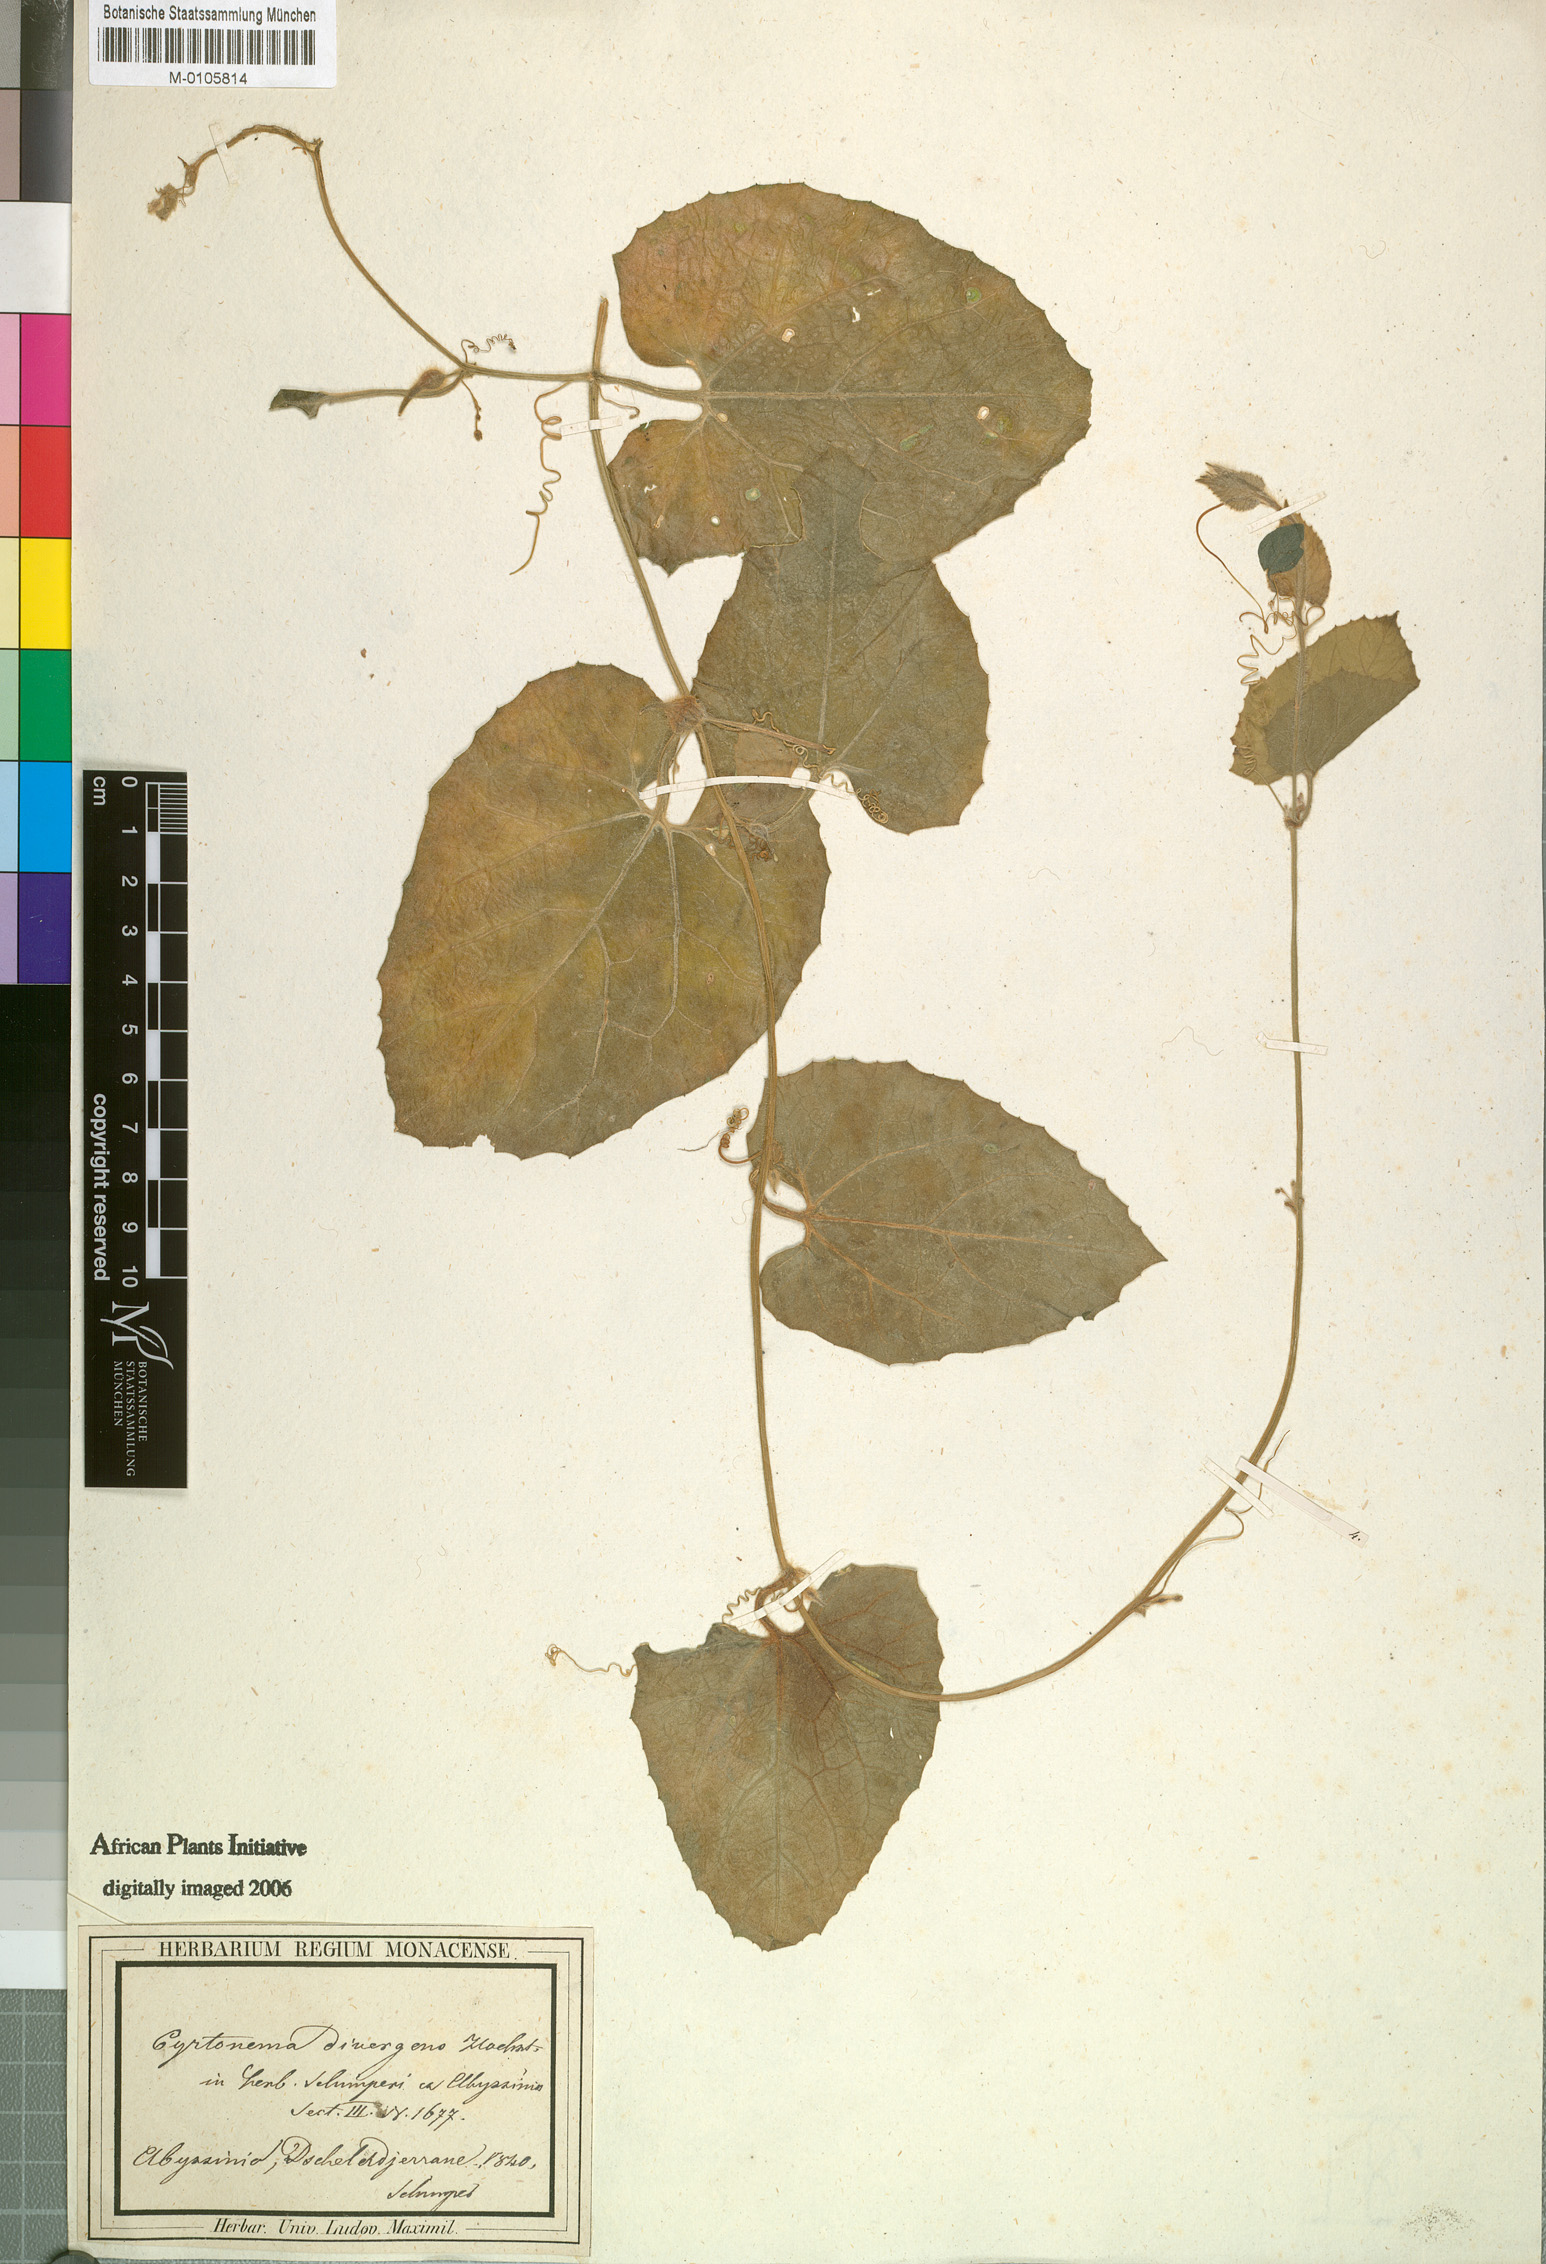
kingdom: Plantae
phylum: Tracheophyta
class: Magnoliopsida
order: Cucurbitales
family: Cucurbitaceae
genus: Kedrostis
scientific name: Kedrostis foetidissima
